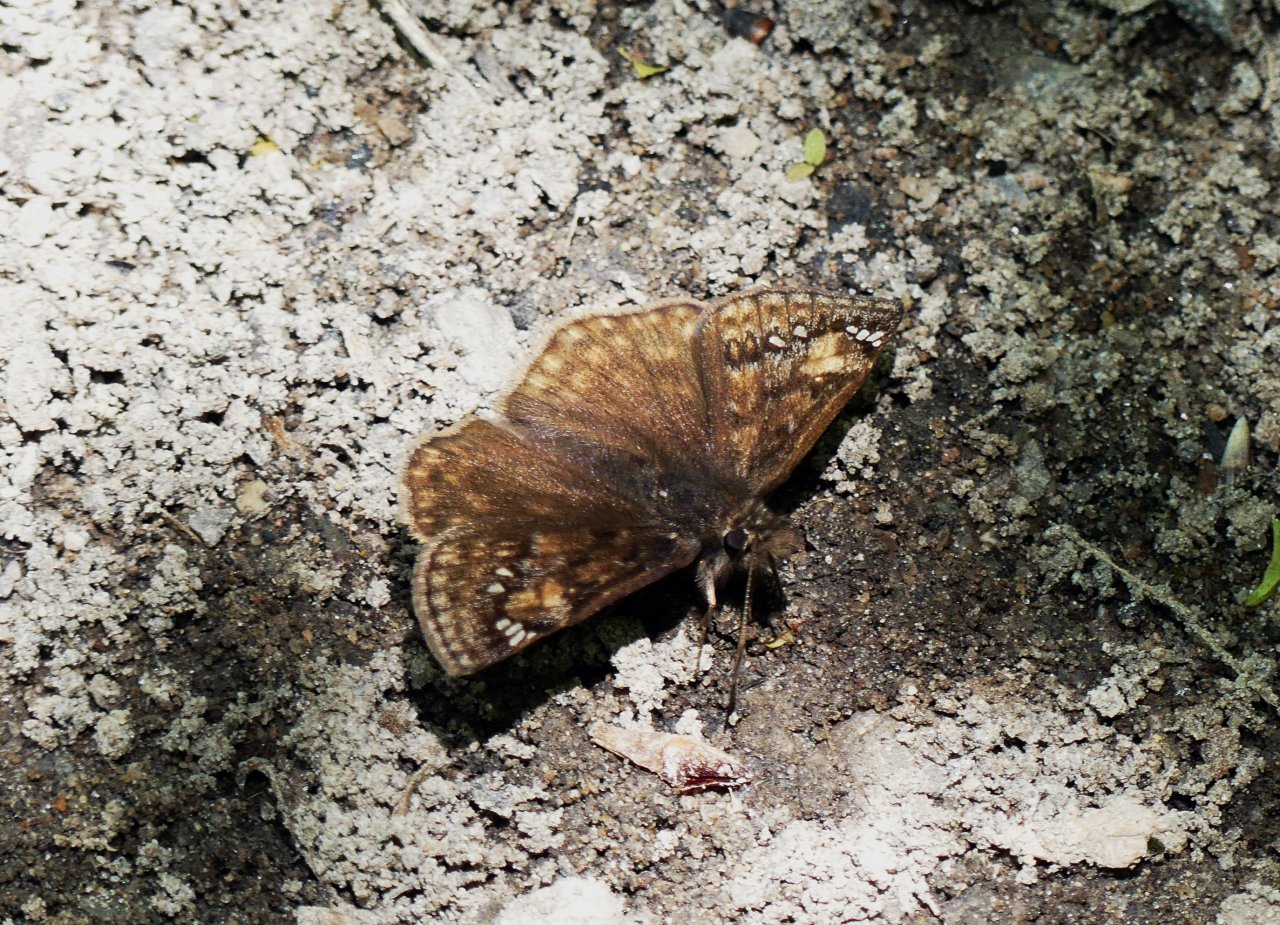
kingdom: Animalia
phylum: Arthropoda
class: Insecta
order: Lepidoptera
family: Hesperiidae
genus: Gesta
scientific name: Gesta
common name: Juvenal's Duskywing
